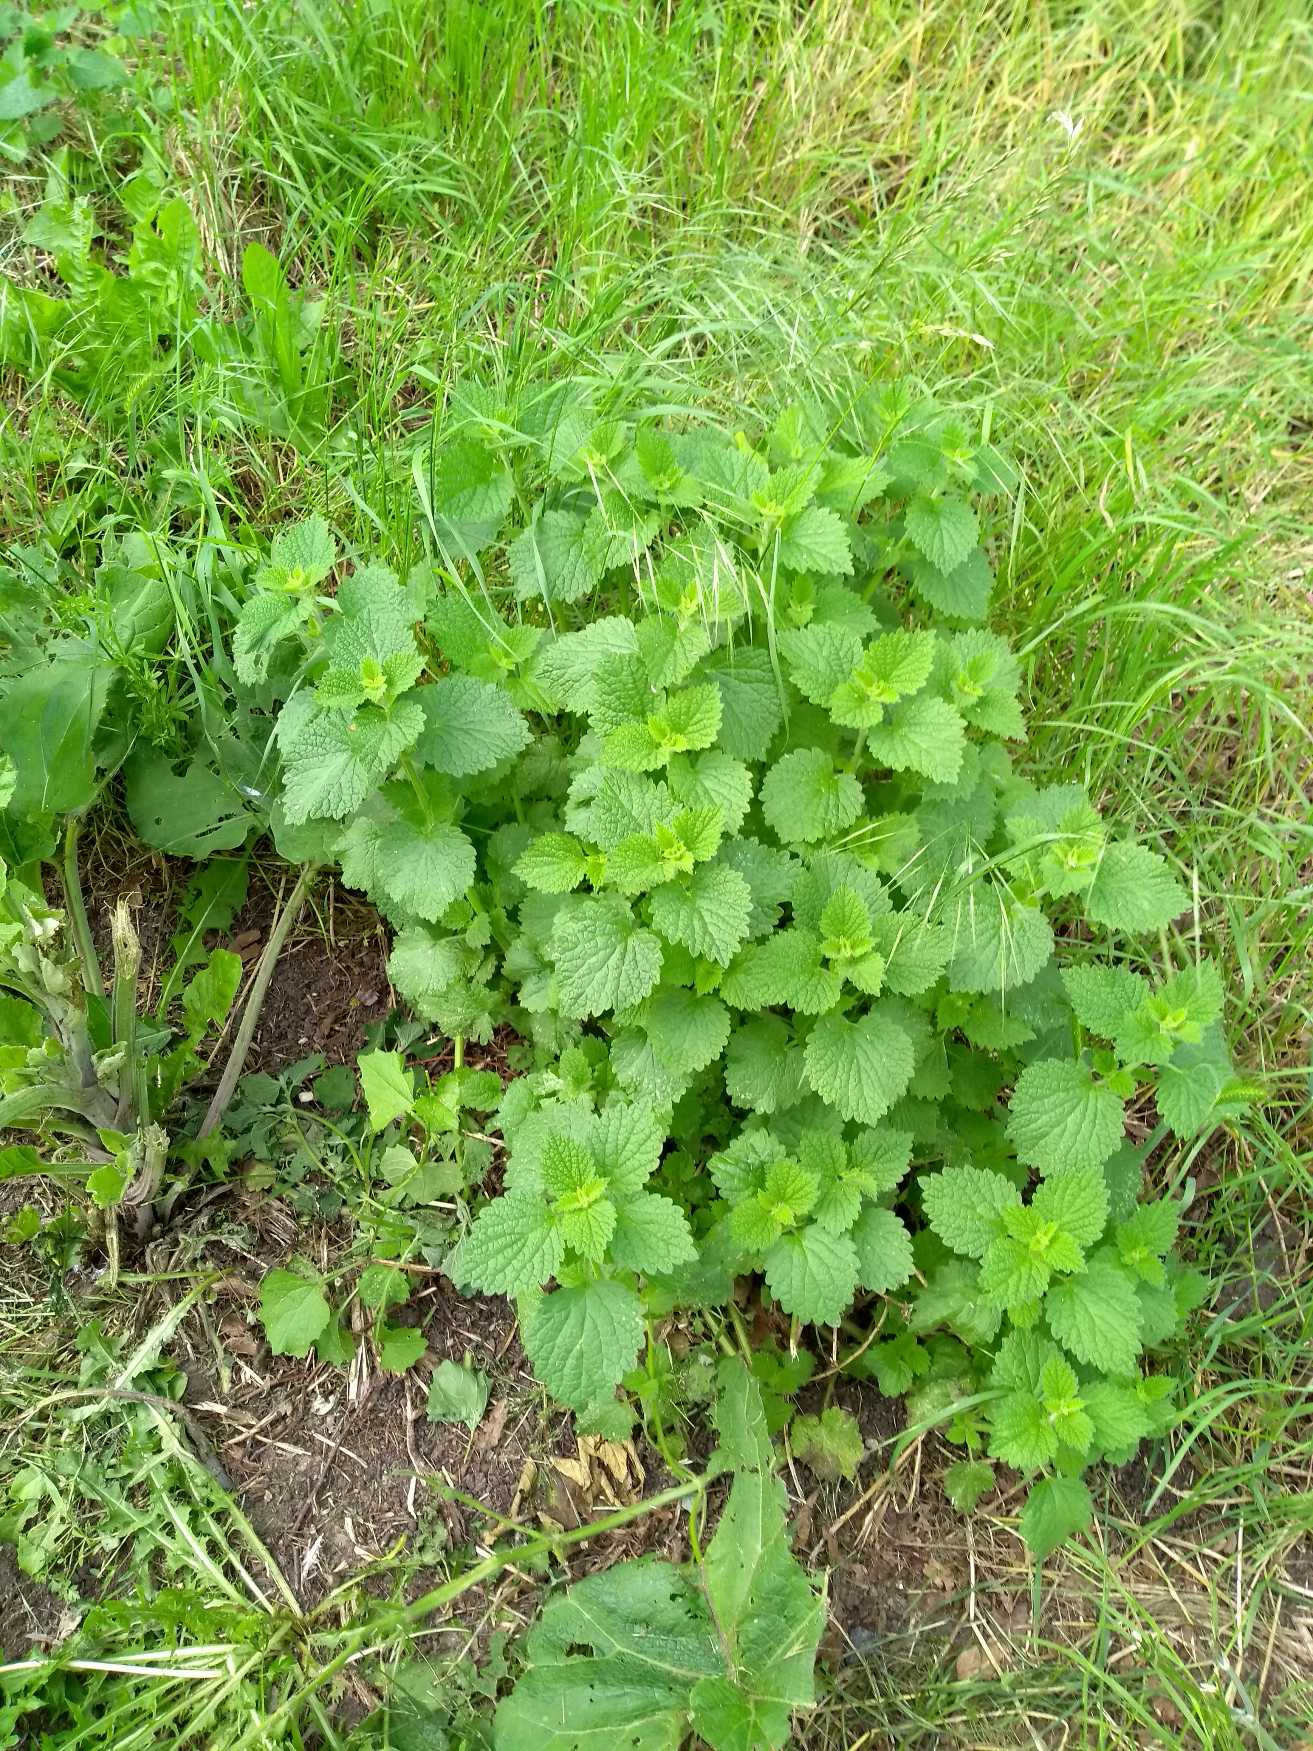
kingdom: Plantae
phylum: Tracheophyta
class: Magnoliopsida
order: Lamiales
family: Lamiaceae
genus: Ballota
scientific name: Ballota nigra
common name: Rød tandbæger
